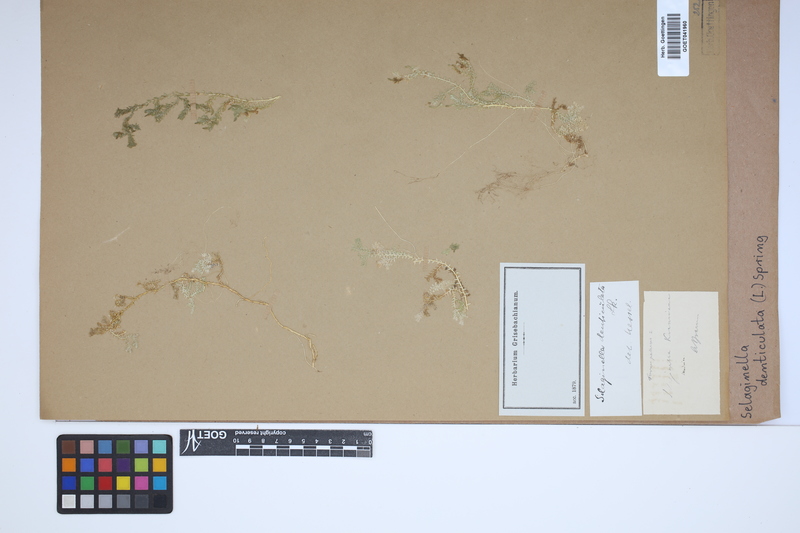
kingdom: Plantae
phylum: Tracheophyta
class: Lycopodiopsida
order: Selaginellales
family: Selaginellaceae
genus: Selaginella
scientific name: Selaginella denticulata
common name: Toothed-leaved clubmoss
